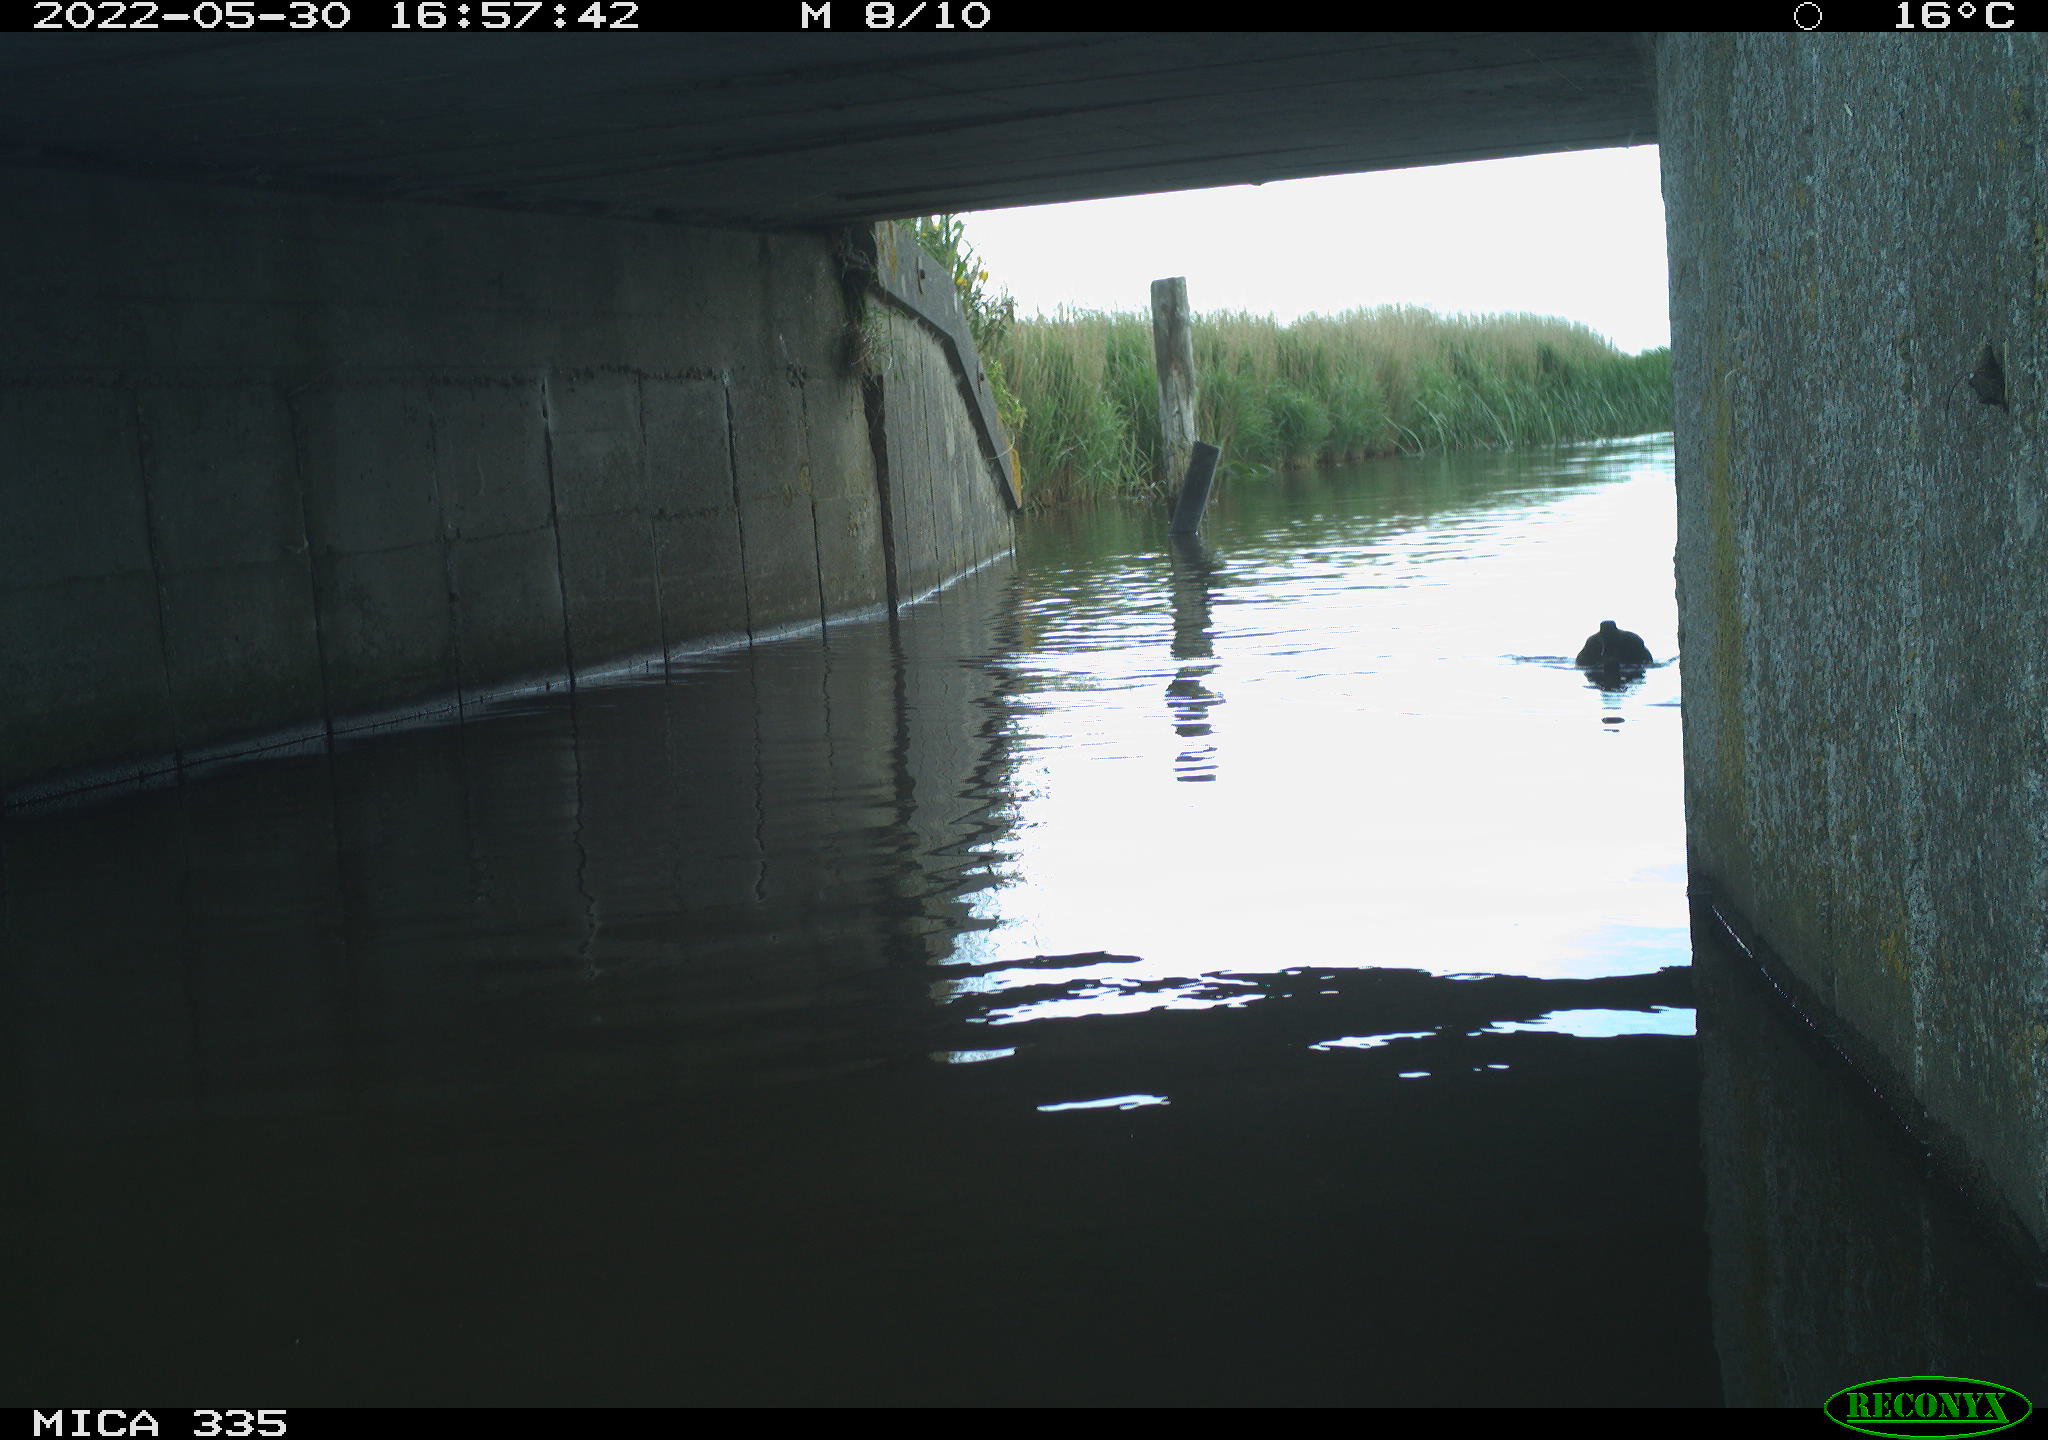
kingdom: Animalia
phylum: Chordata
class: Aves
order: Anseriformes
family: Anatidae
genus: Anas
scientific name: Anas platyrhynchos
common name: Mallard
